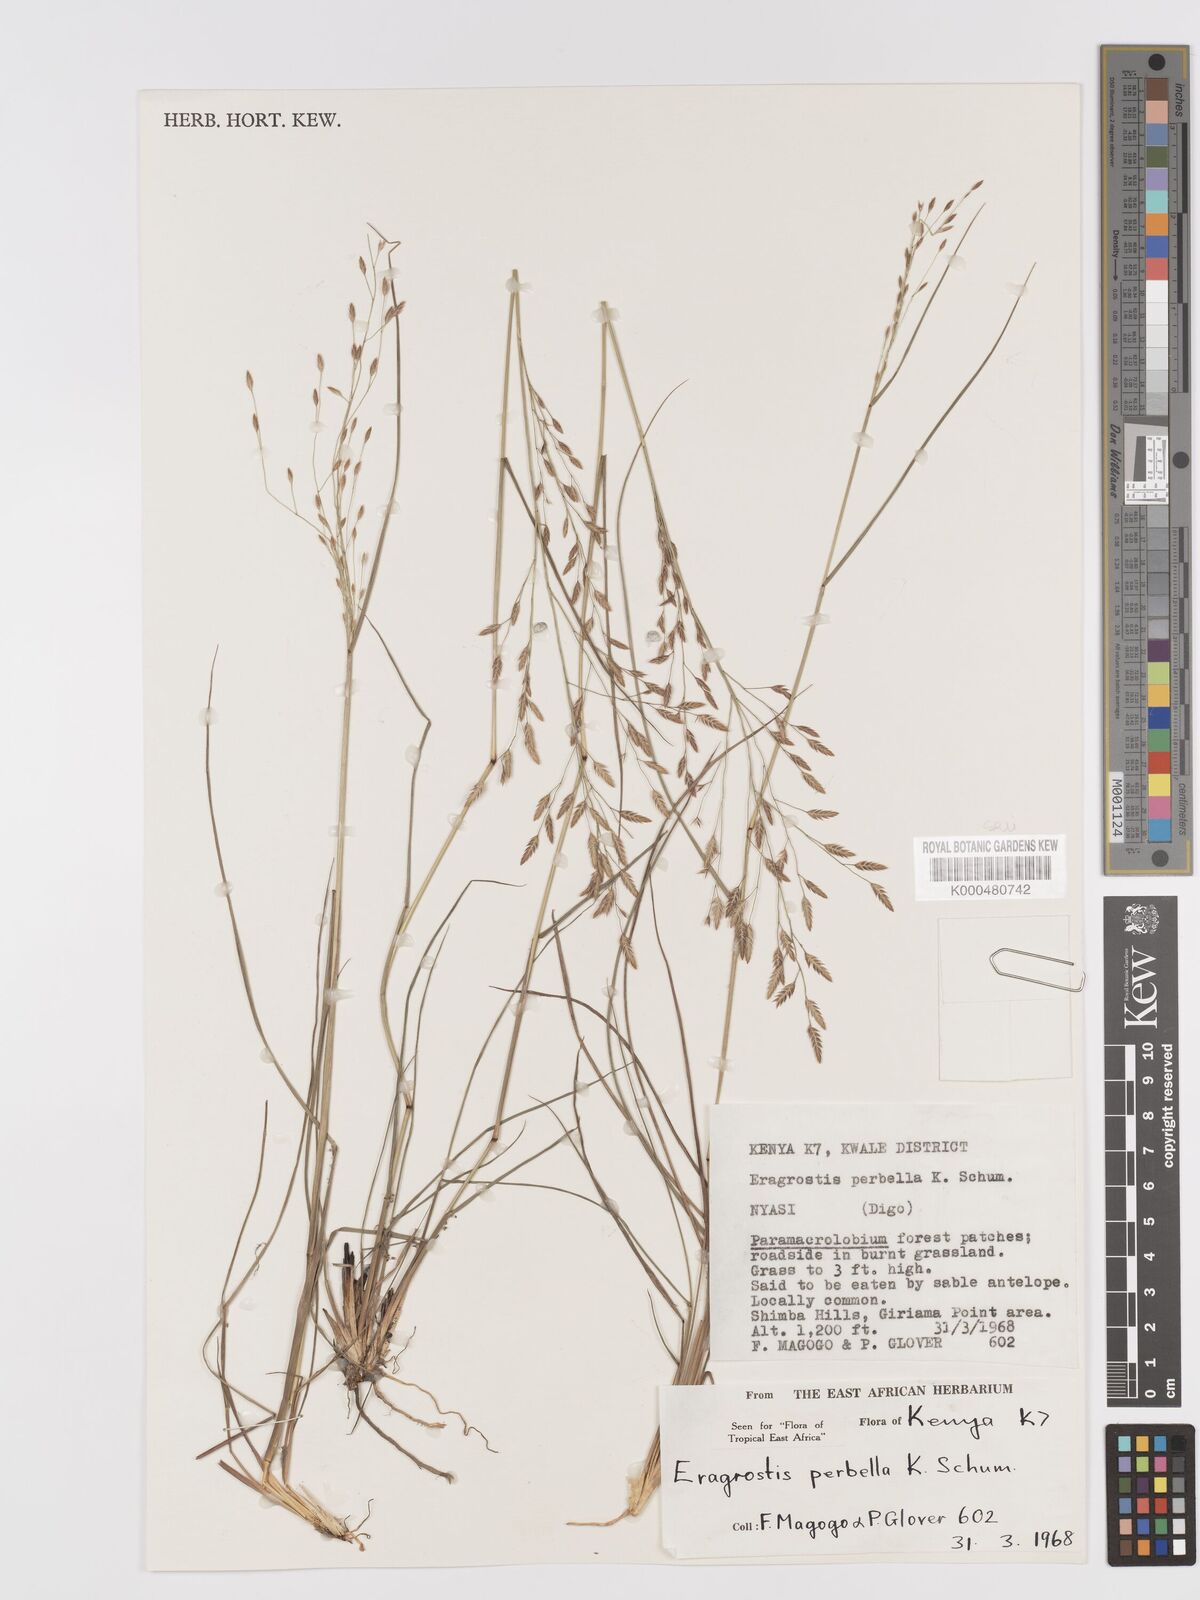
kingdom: Plantae
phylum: Tracheophyta
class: Liliopsida
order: Poales
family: Poaceae
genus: Eragrostis
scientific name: Eragrostis perbella
